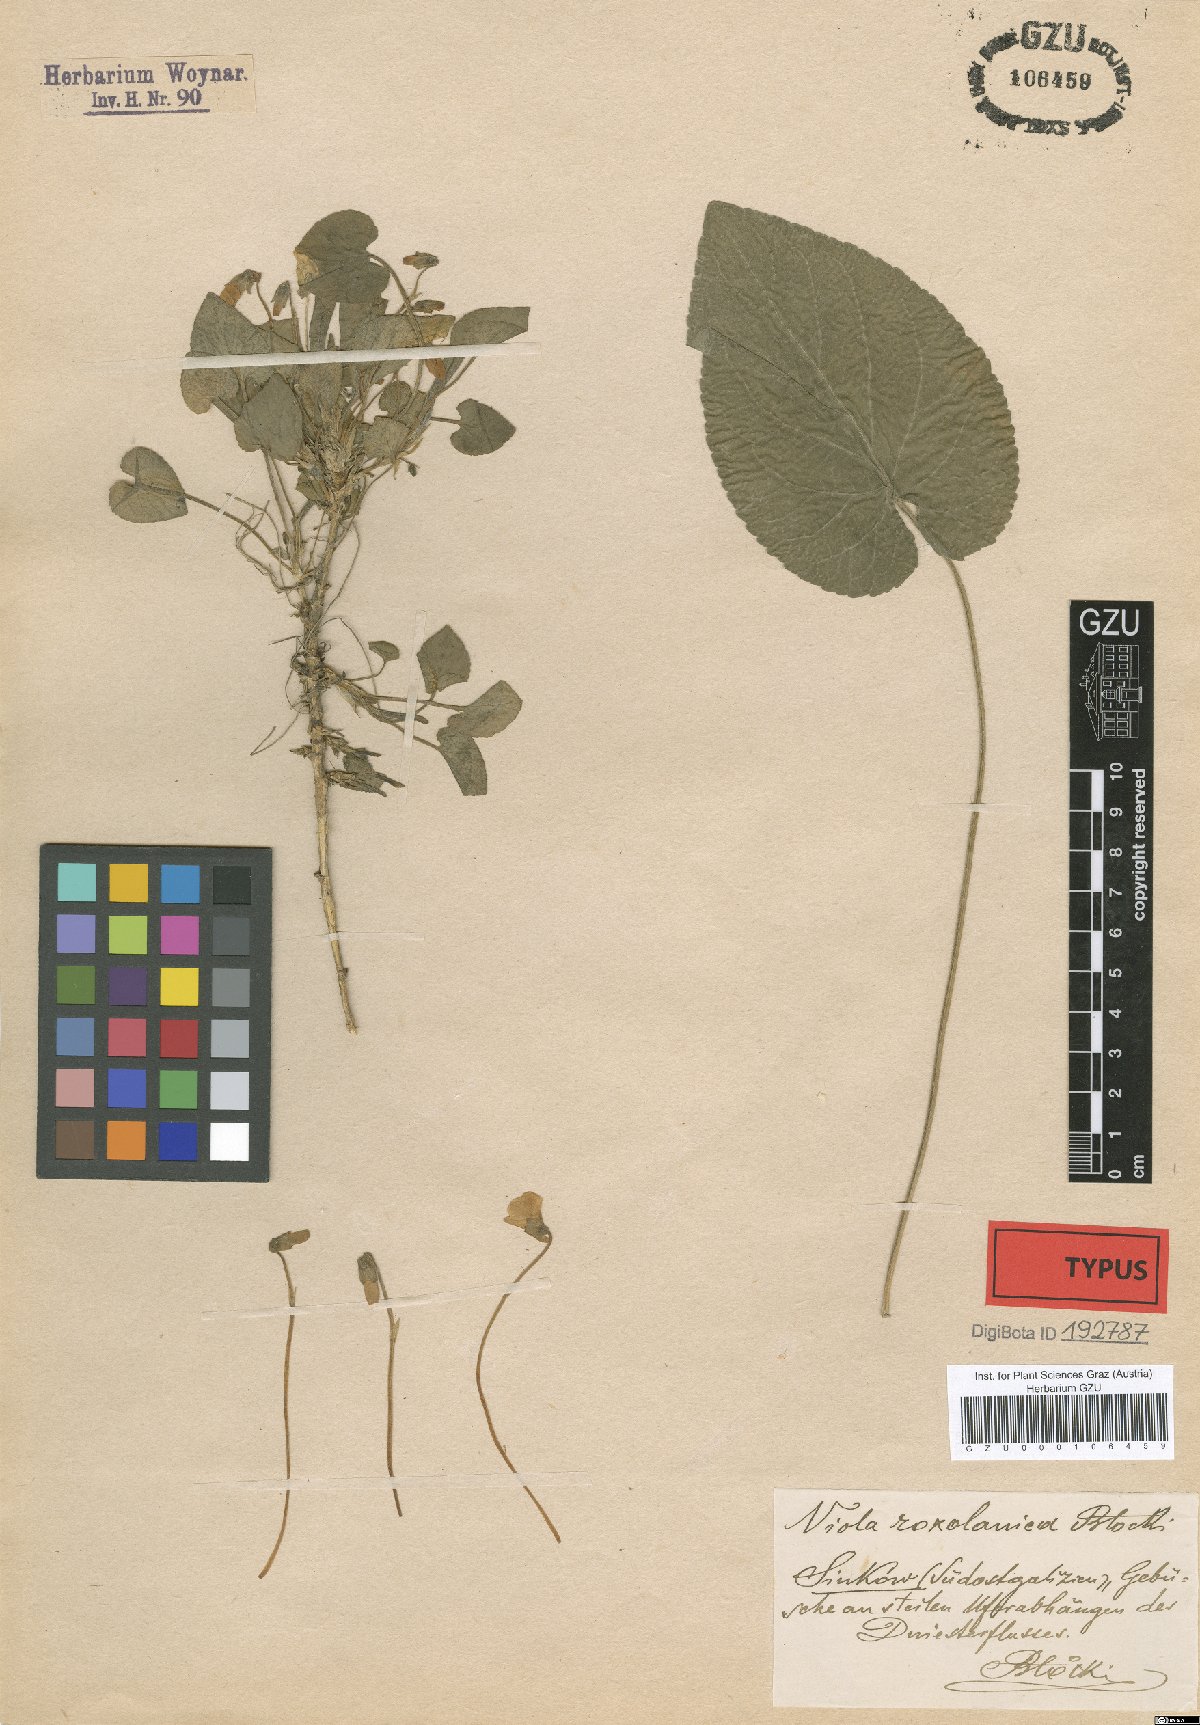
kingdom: Plantae
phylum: Tracheophyta
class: Magnoliopsida
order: Malpighiales
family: Violaceae
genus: Viola
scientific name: Viola adulterina
